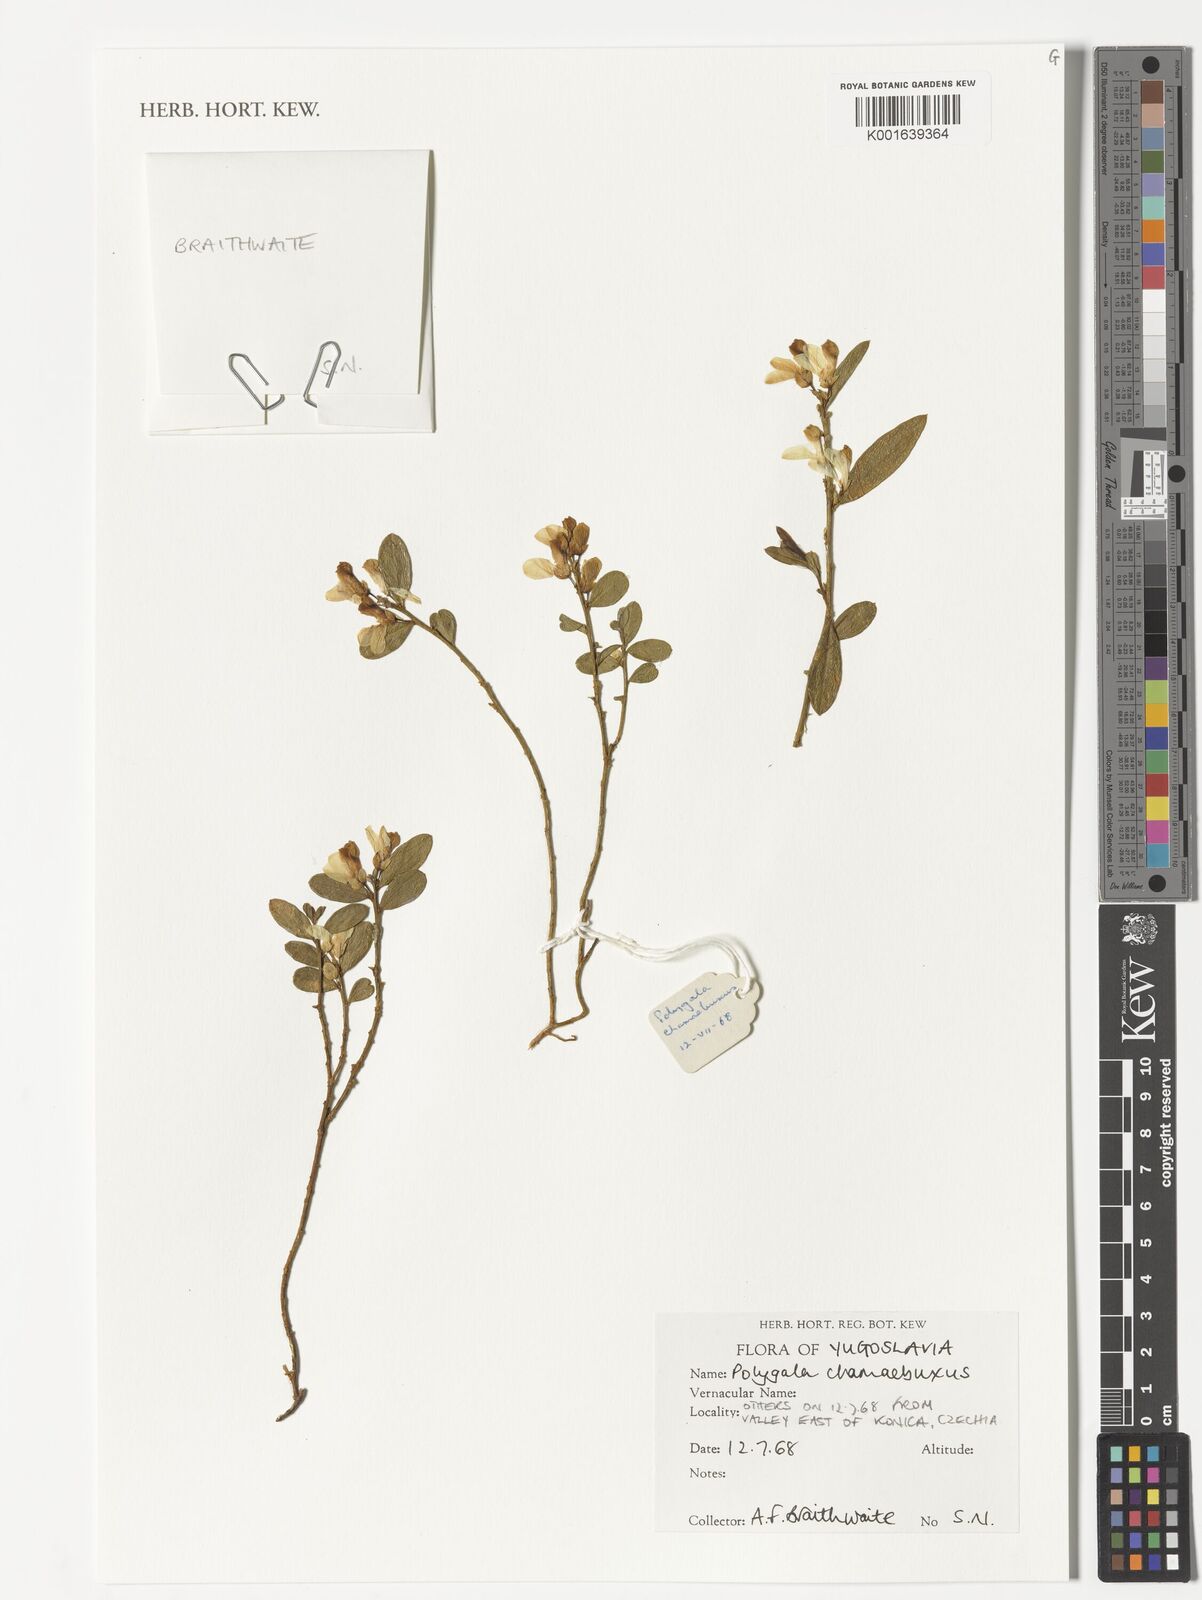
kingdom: Plantae
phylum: Tracheophyta
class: Magnoliopsida
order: Fabales
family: Polygalaceae
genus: Polygaloides
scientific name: Polygaloides chamaebuxus
